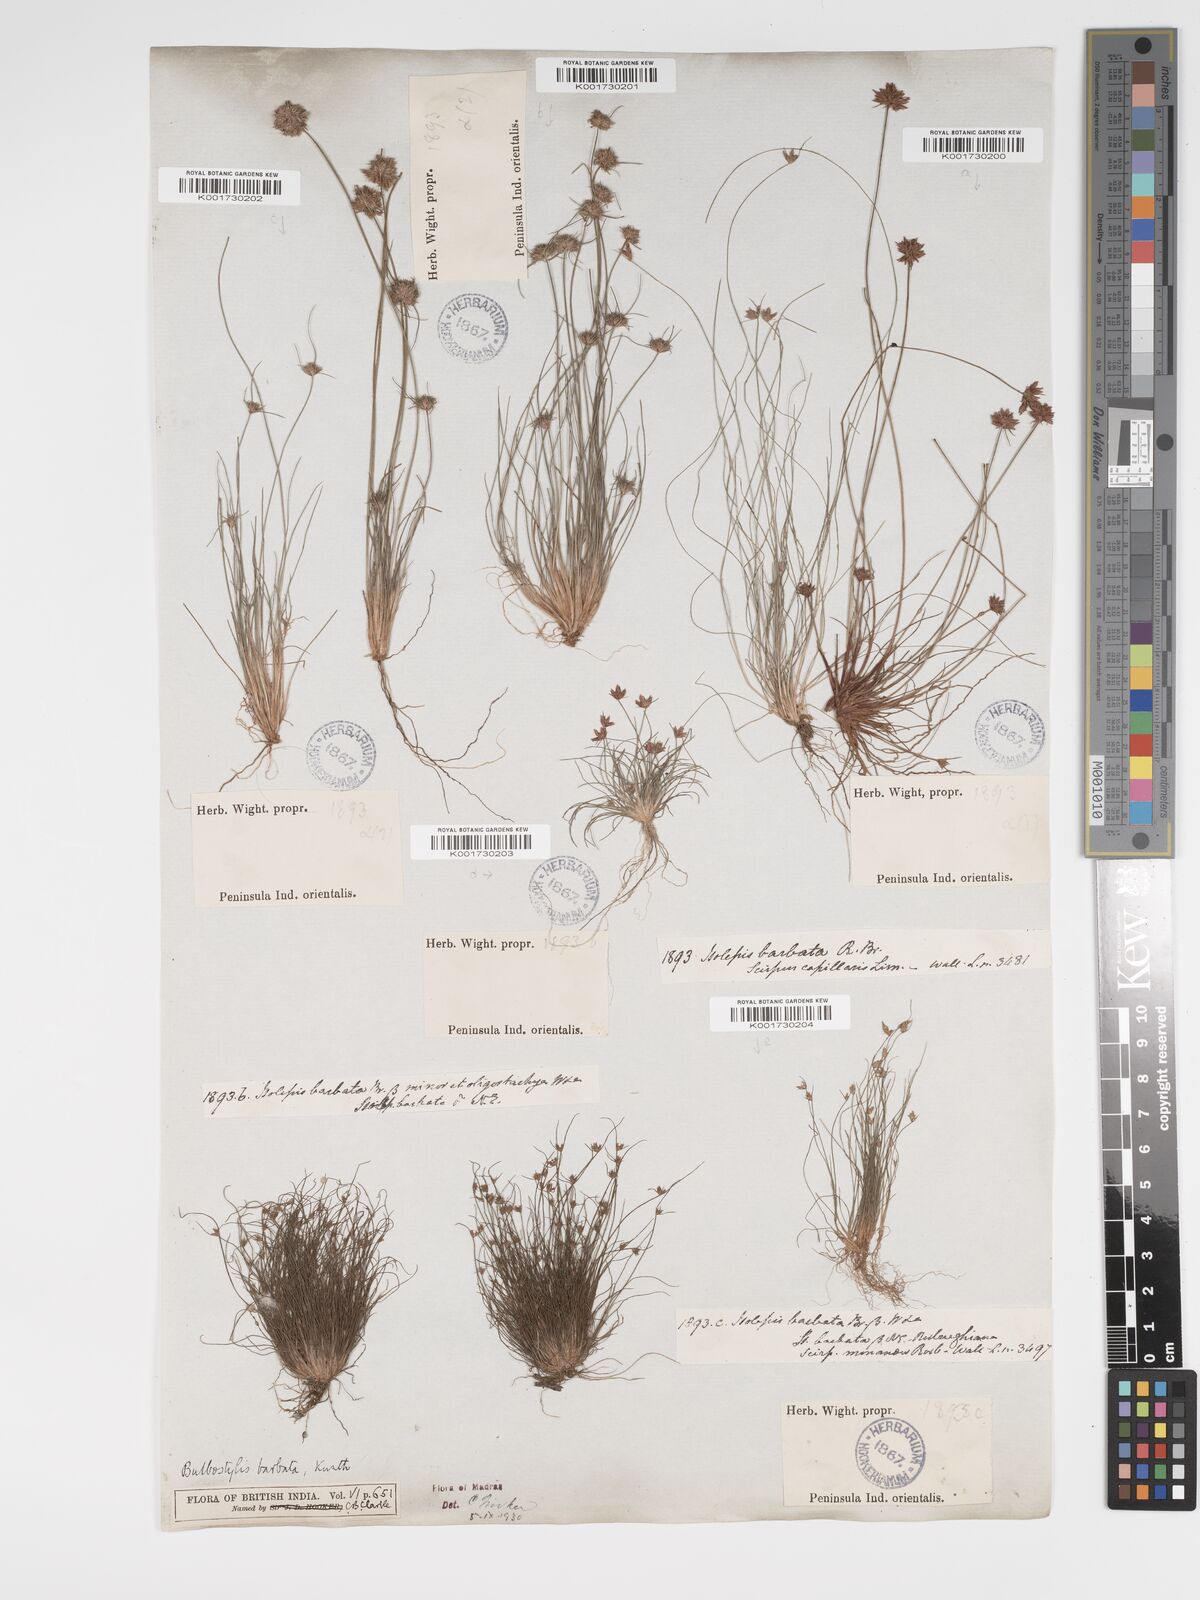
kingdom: Plantae
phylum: Tracheophyta
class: Liliopsida
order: Poales
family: Cyperaceae
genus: Bulbostylis
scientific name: Bulbostylis barbata
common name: Watergrass
